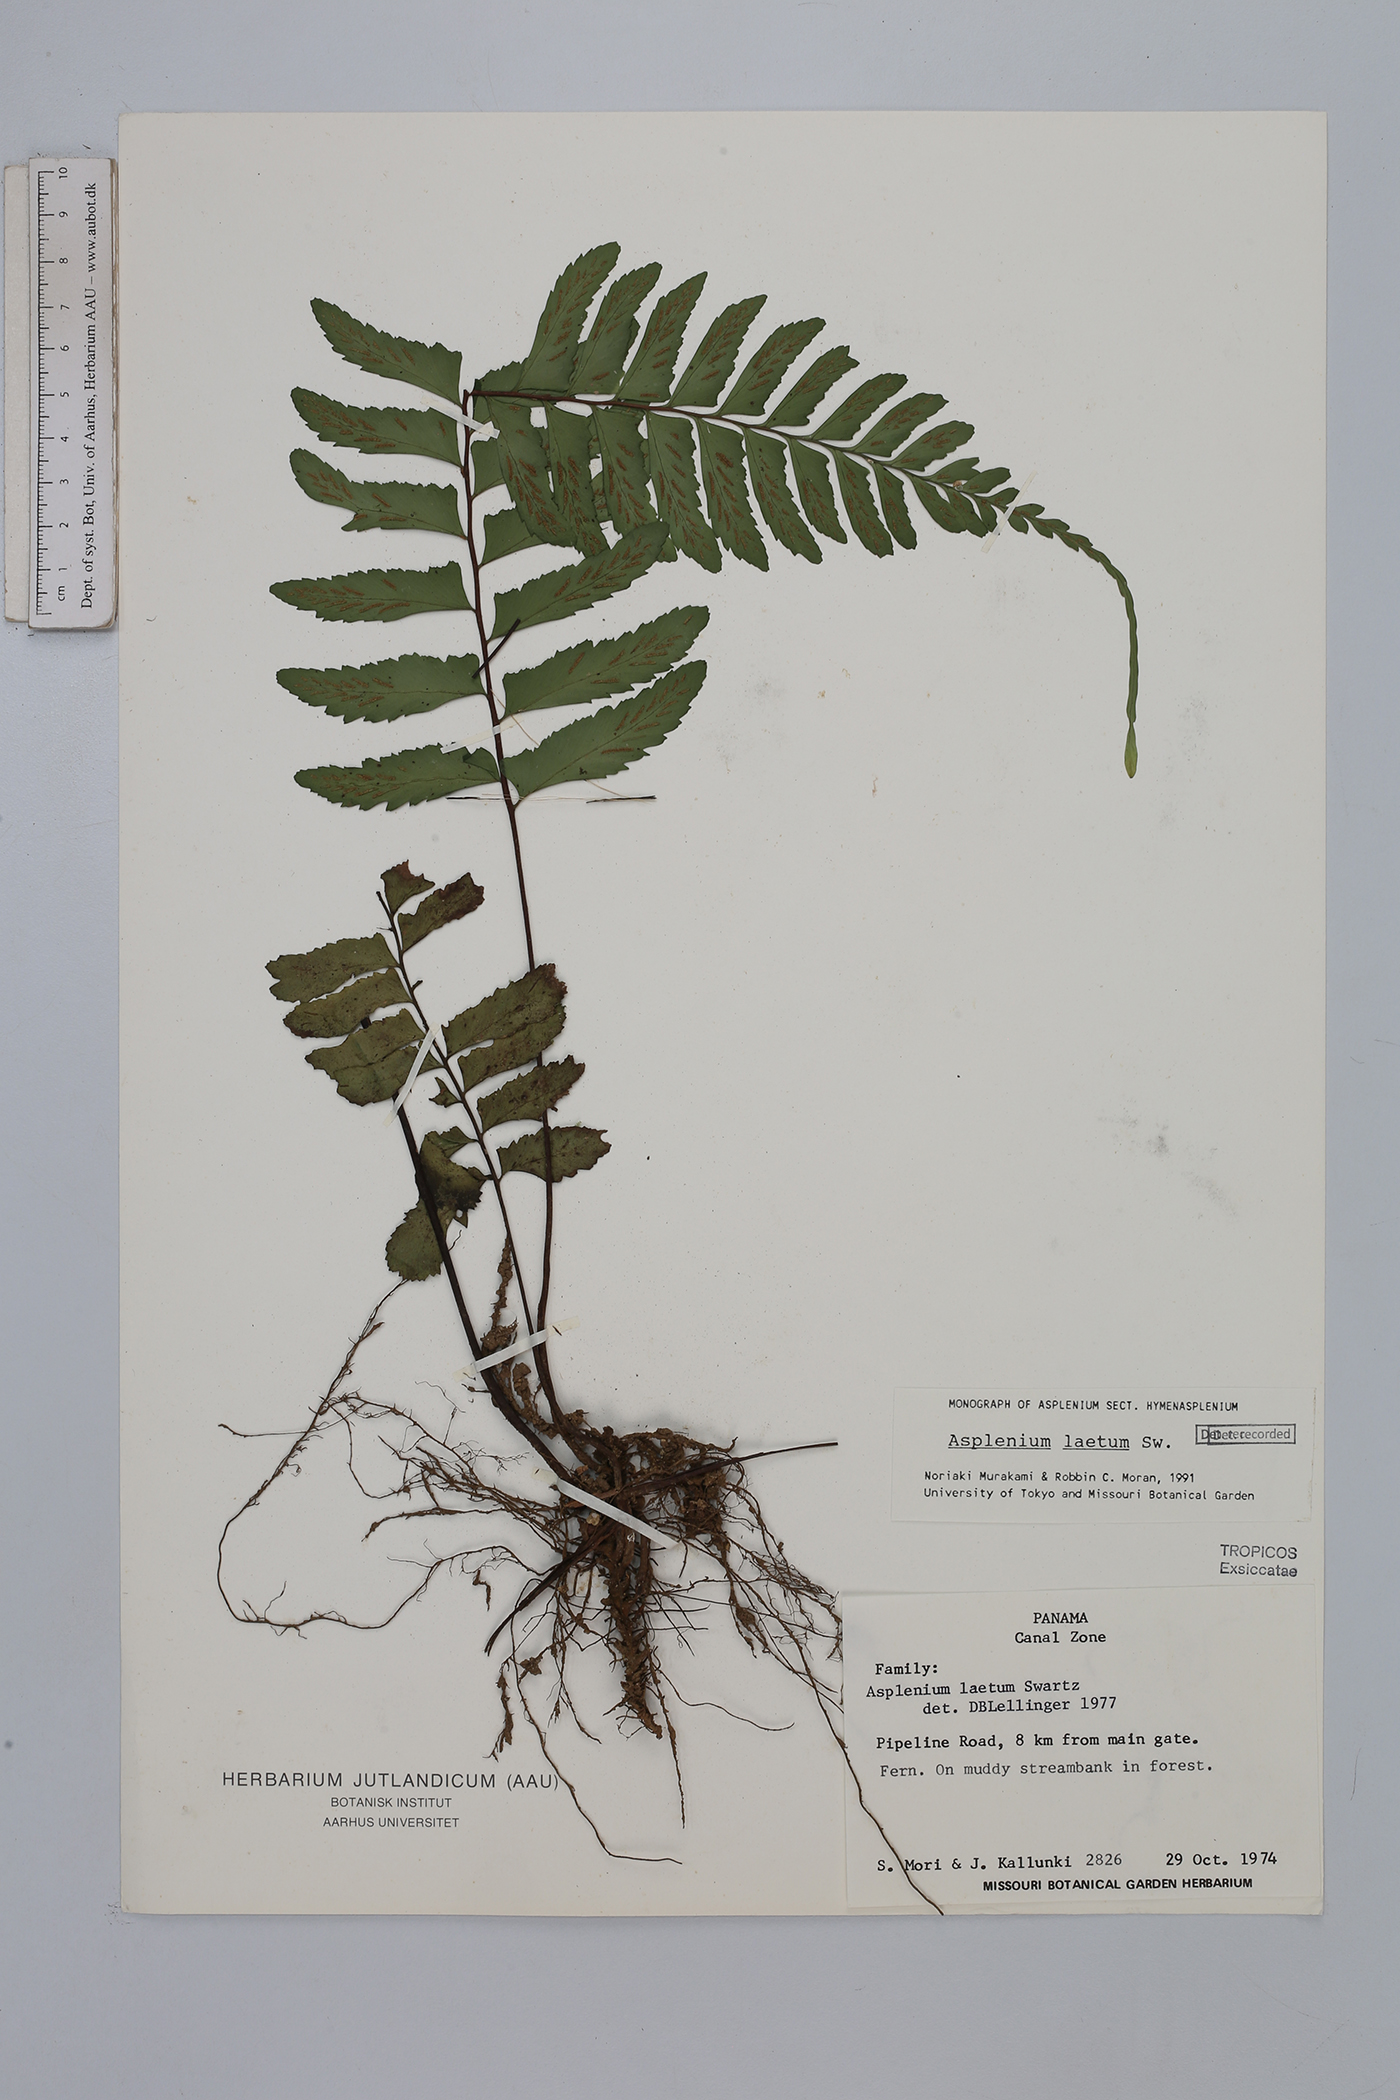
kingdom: Plantae
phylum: Tracheophyta
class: Polypodiopsida
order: Polypodiales
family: Aspleniaceae
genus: Hymenasplenium
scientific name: Hymenasplenium laetum
